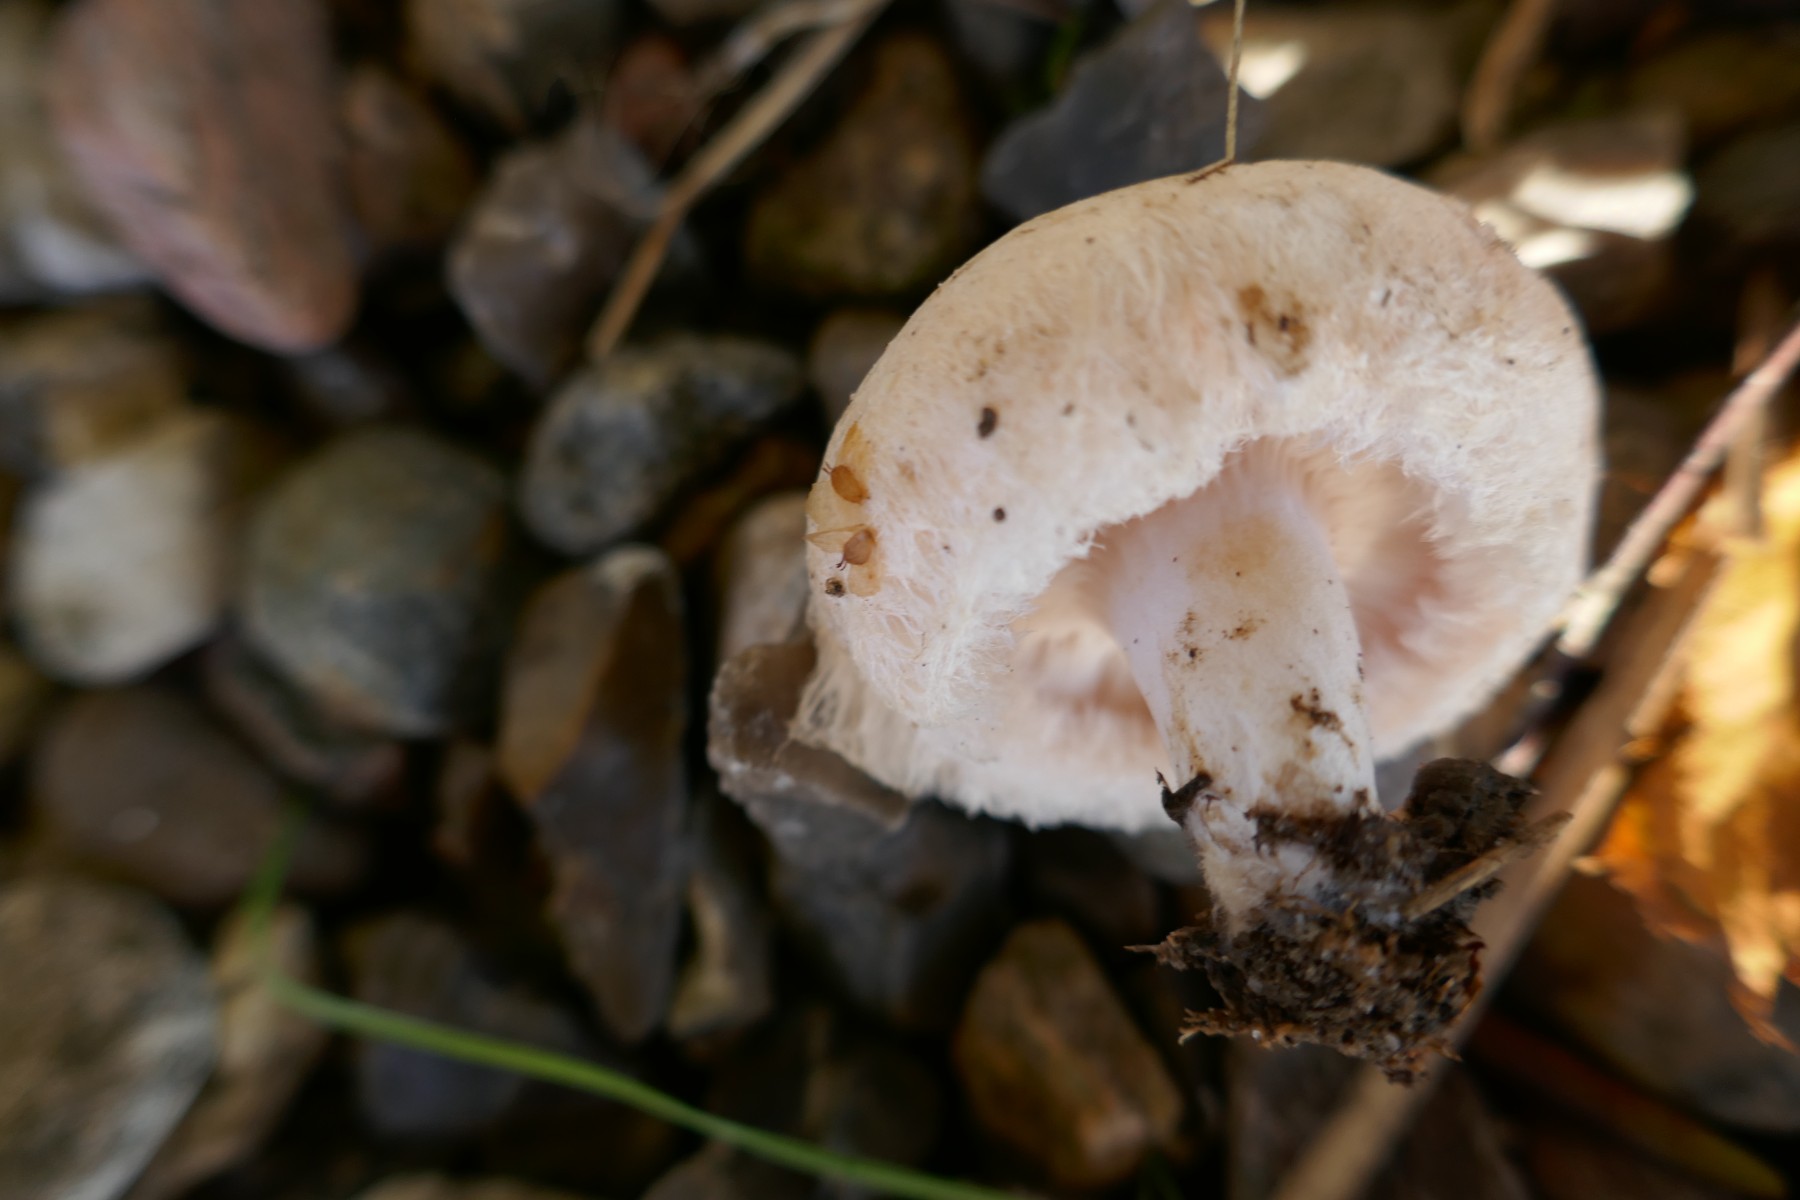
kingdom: Fungi
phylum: Basidiomycota
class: Agaricomycetes
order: Russulales
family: Russulaceae
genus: Lactarius
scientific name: Lactarius pubescens
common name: dunet mælkehat
